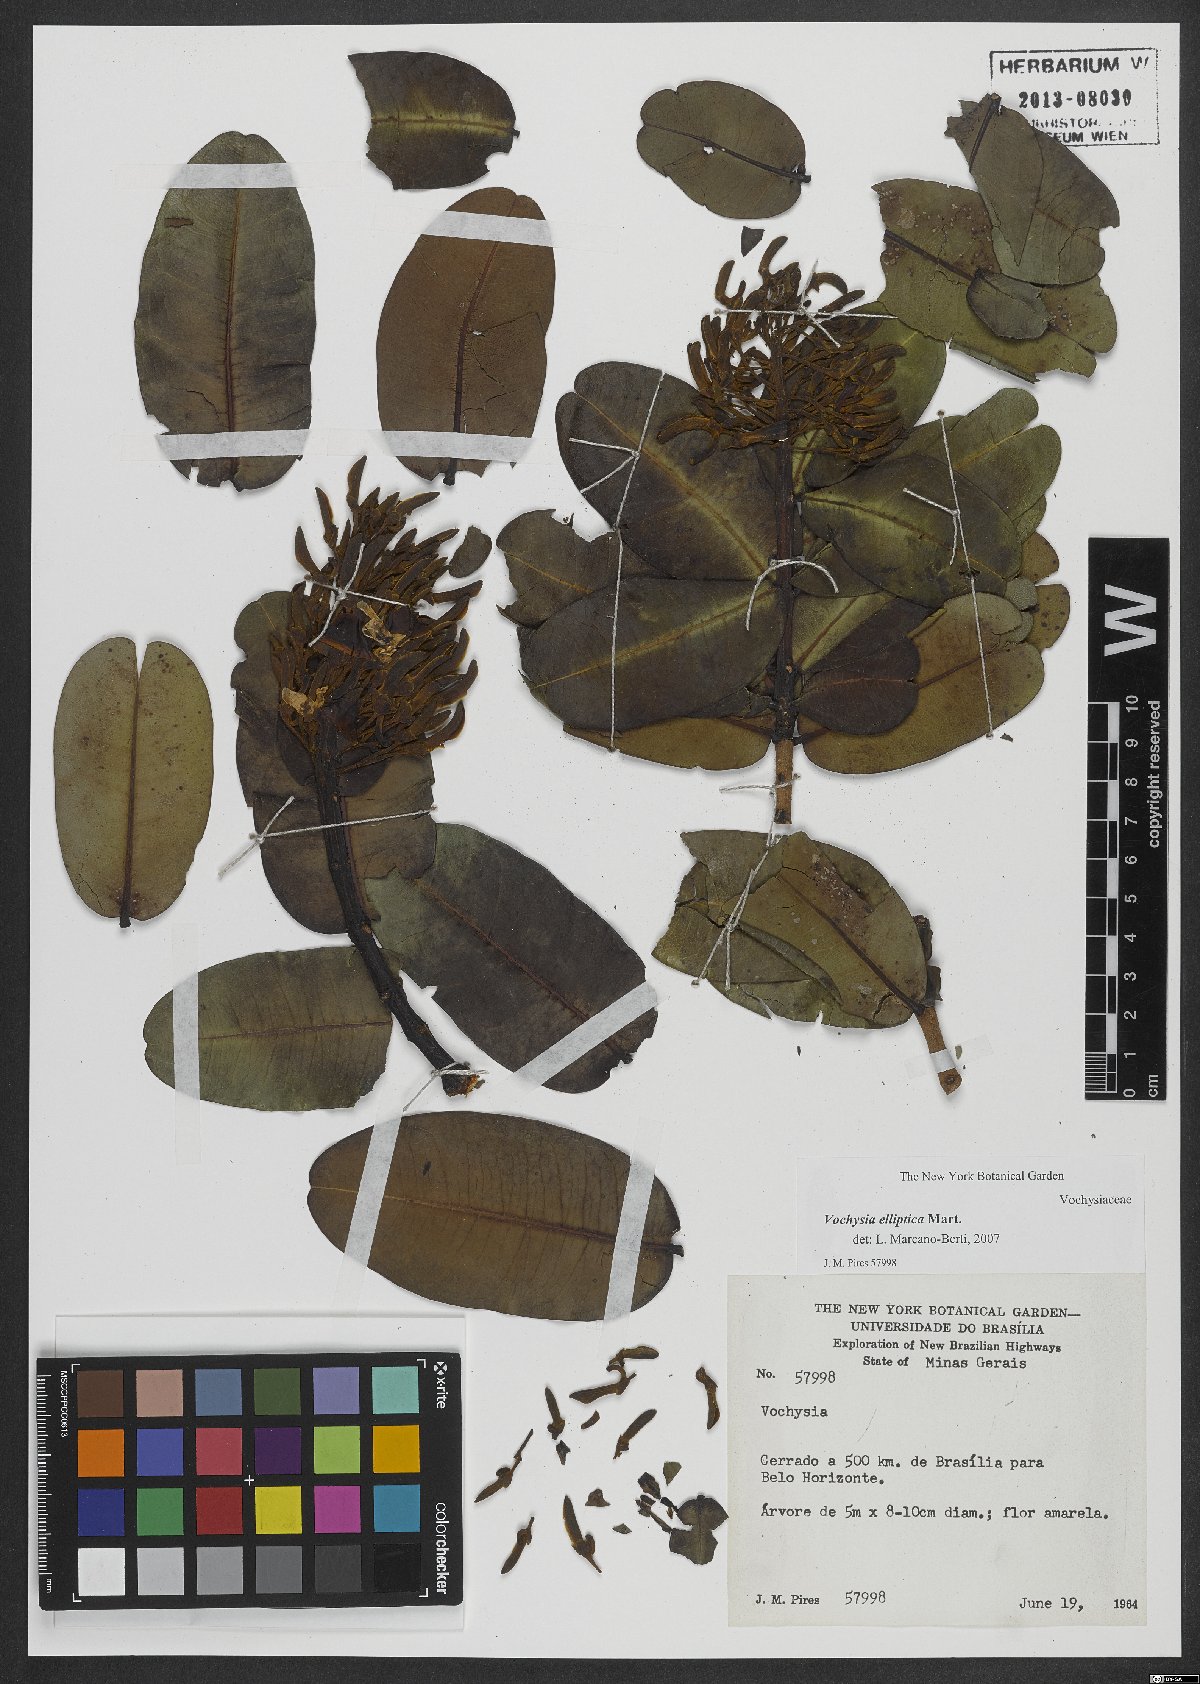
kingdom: Plantae
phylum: Tracheophyta
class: Magnoliopsida
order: Myrtales
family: Vochysiaceae
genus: Vochysia
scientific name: Vochysia elliptica
